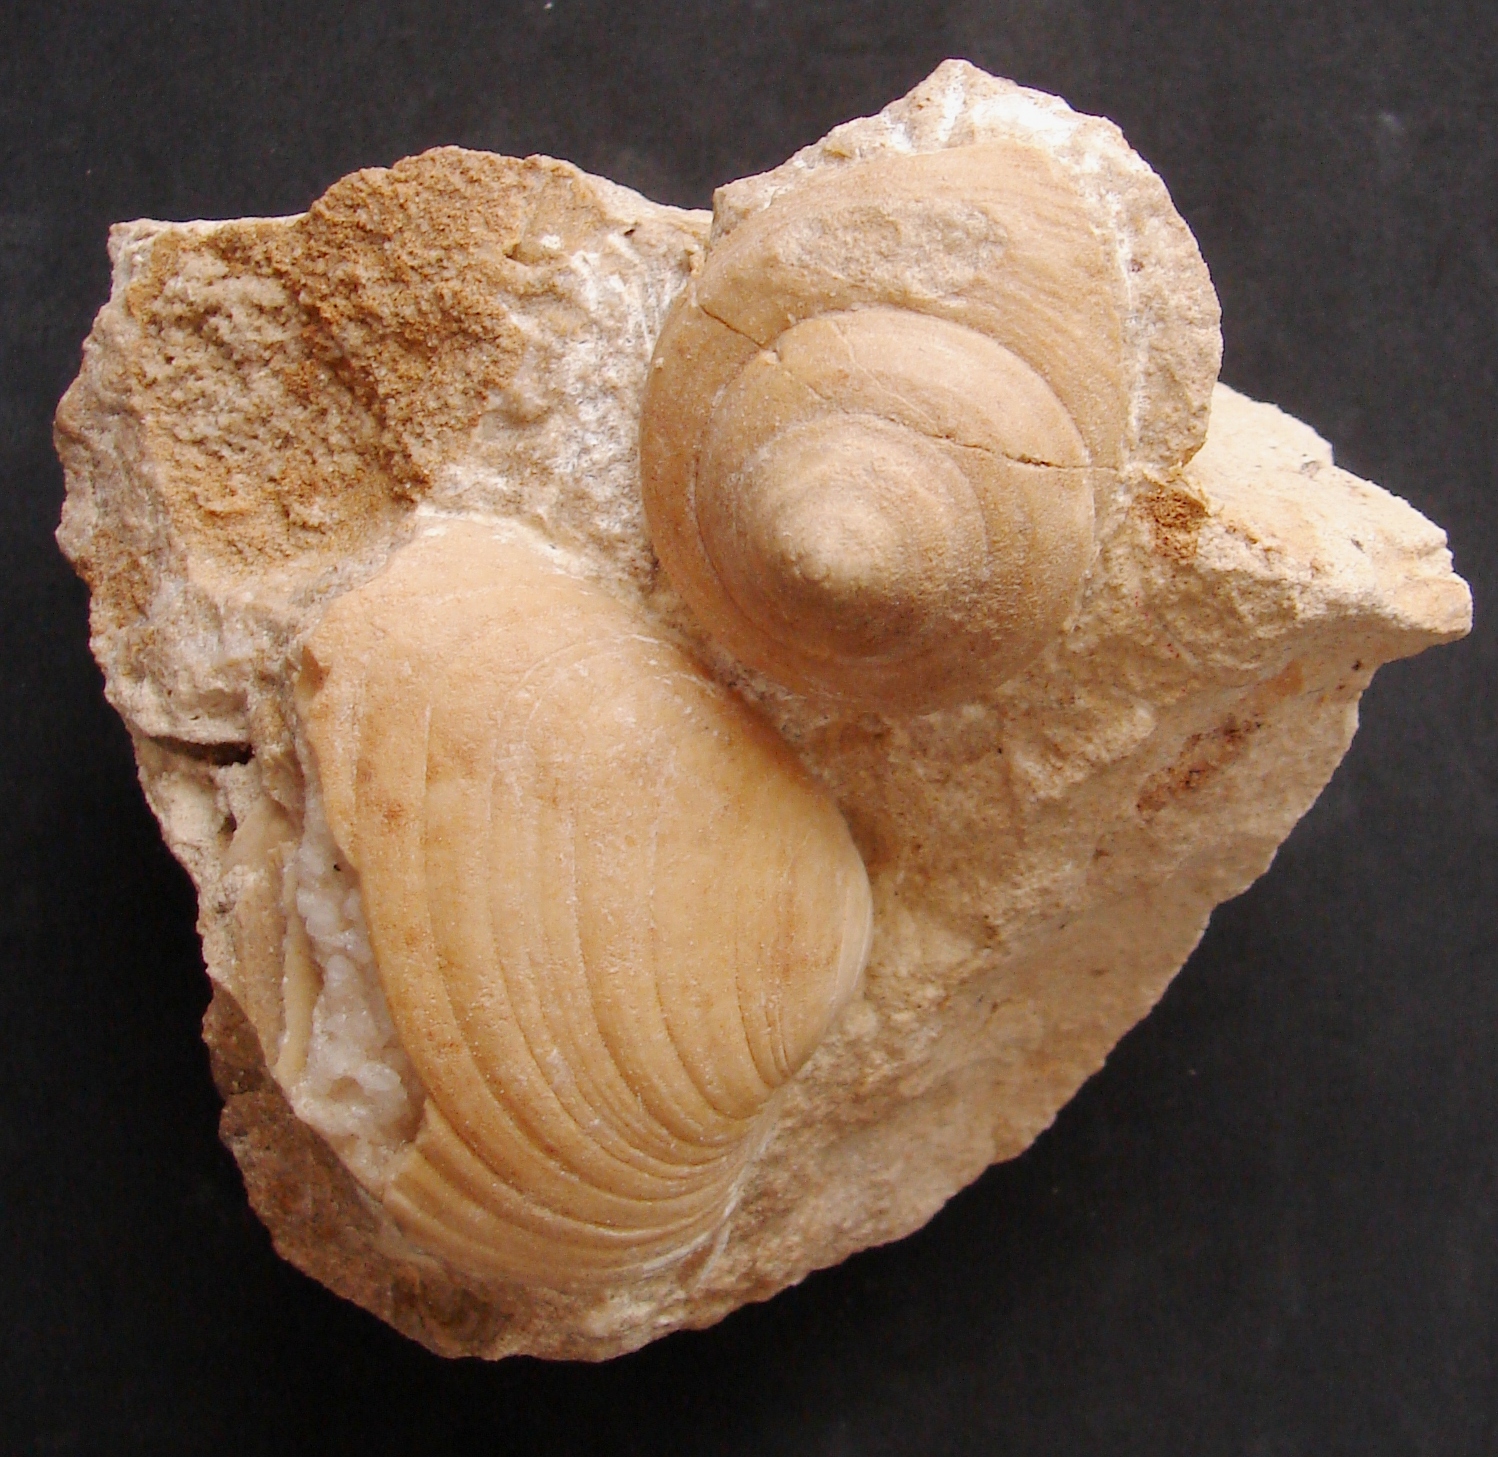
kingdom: Animalia
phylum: Mollusca
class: Gastropoda
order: Pleurotomariida
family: Trochotomidae
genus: Trochotoma
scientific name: Trochotoma vetusta
